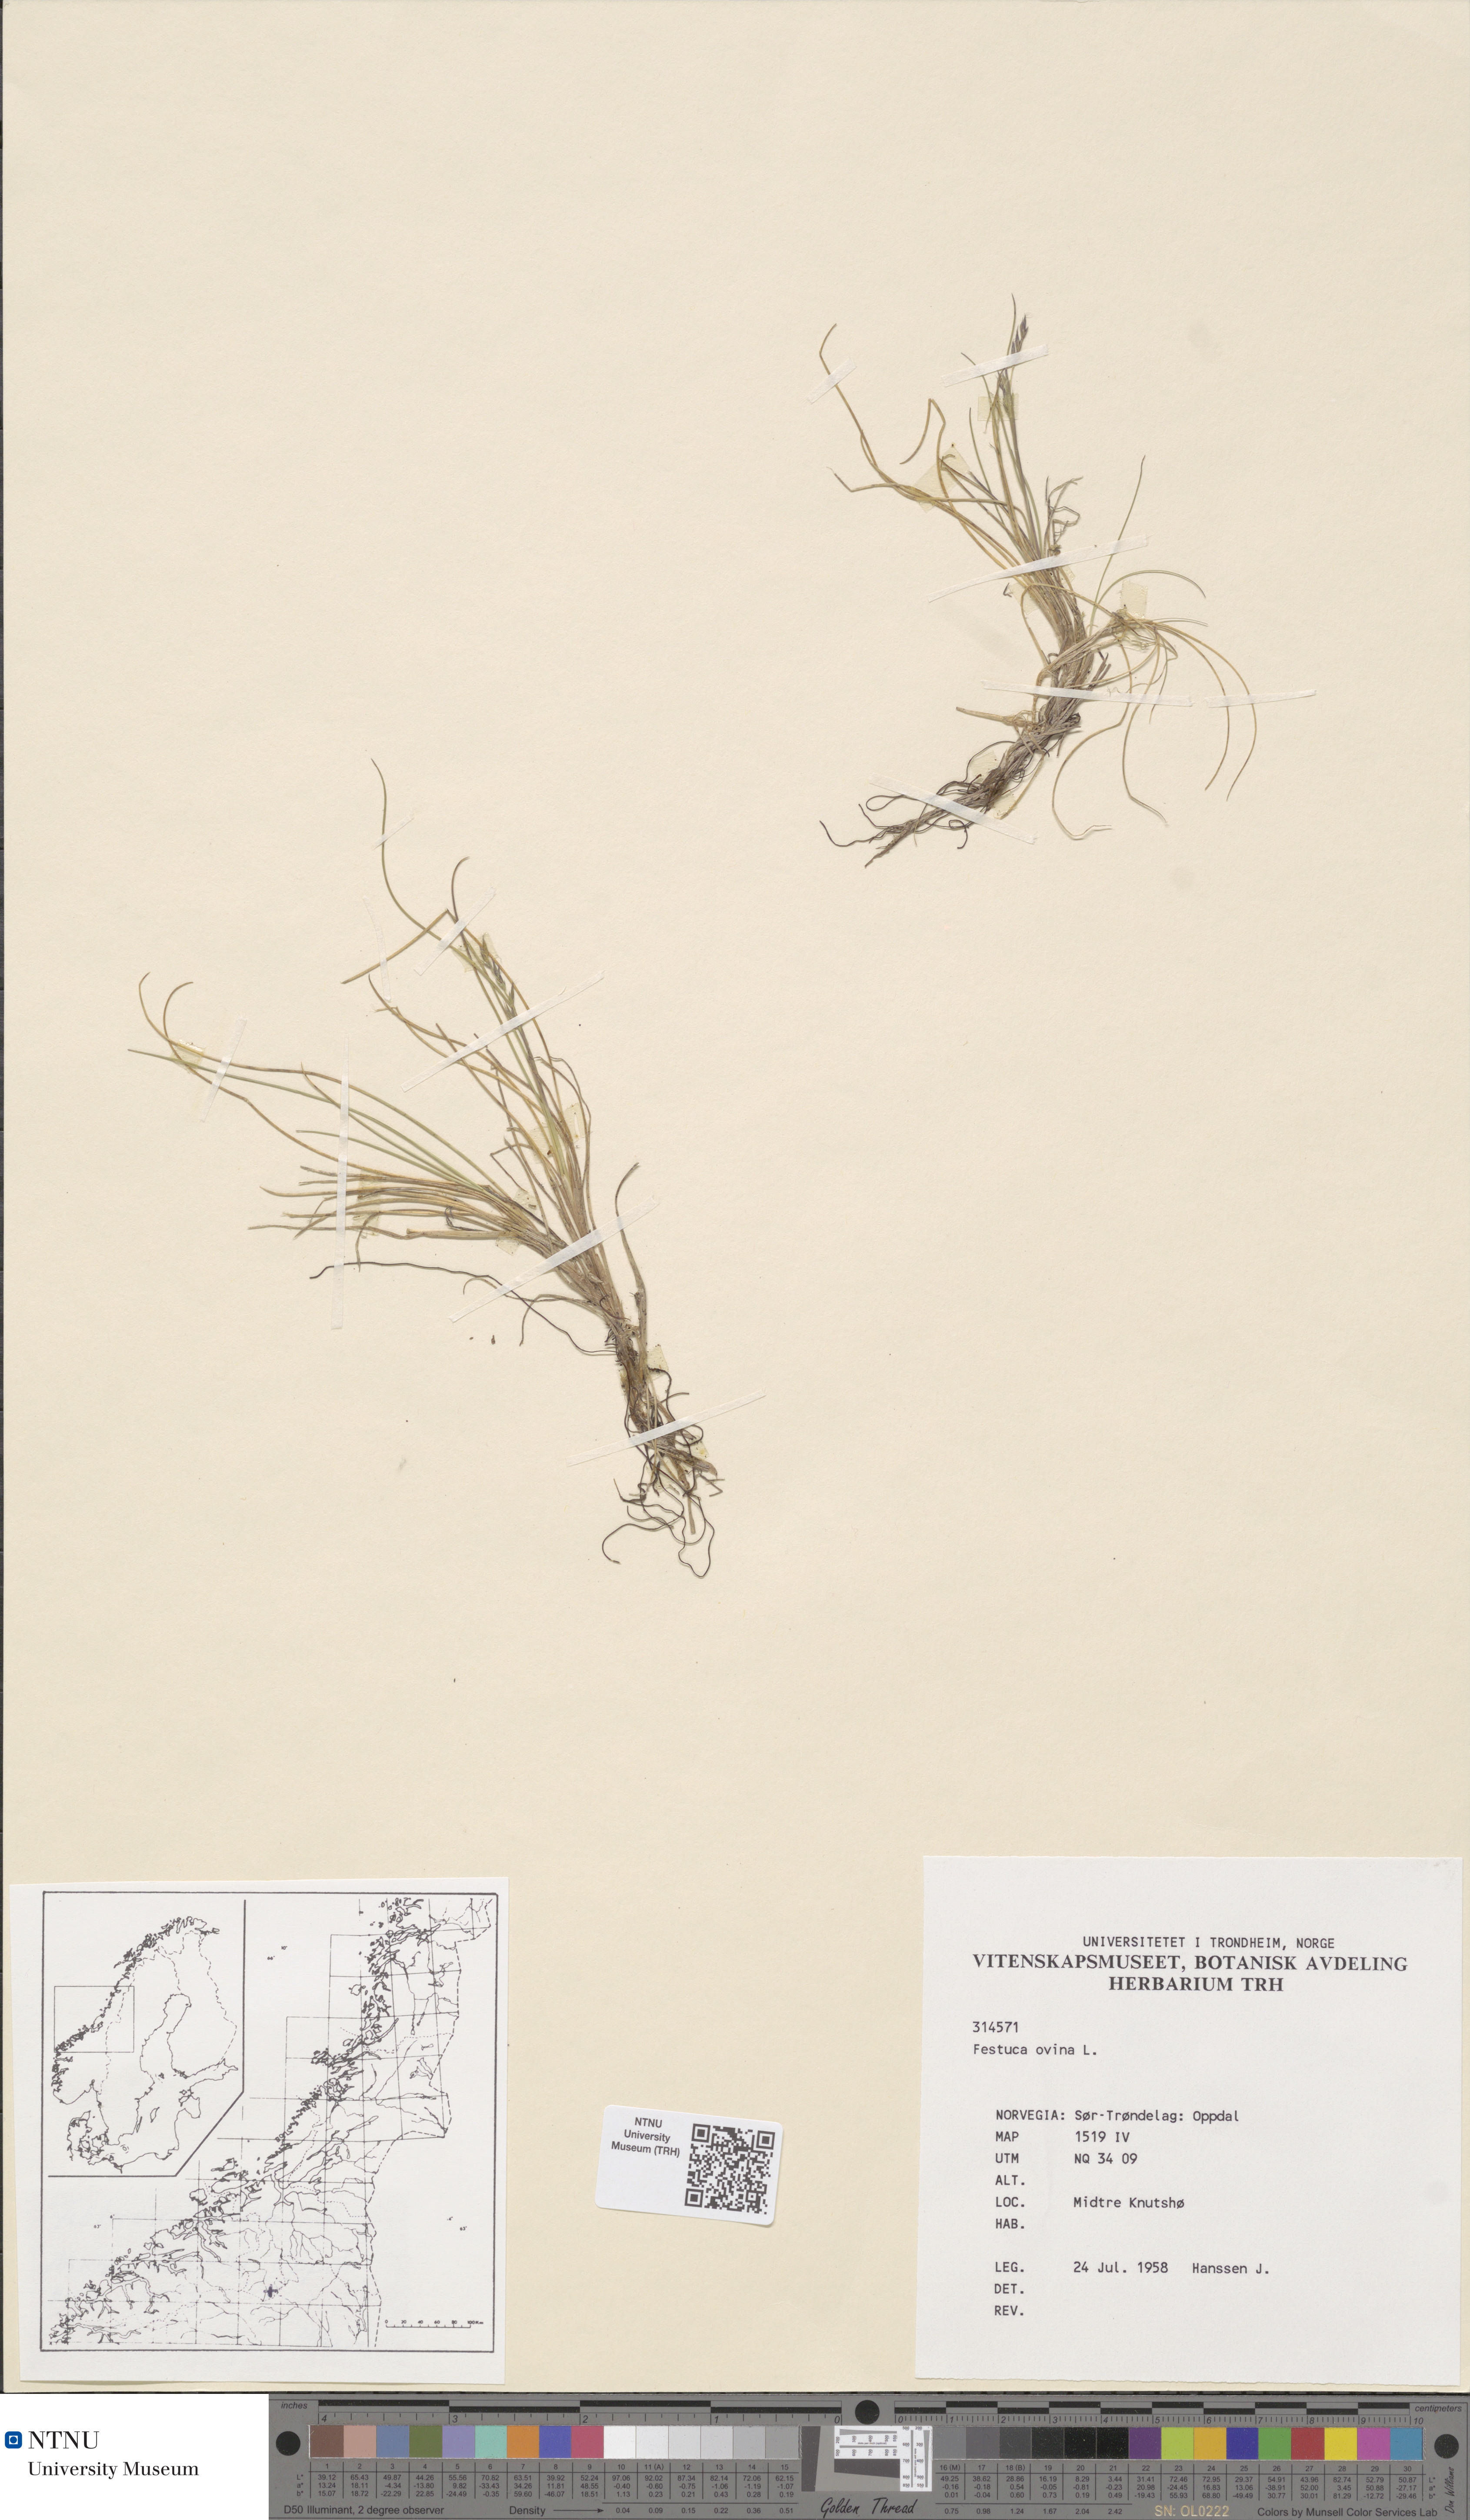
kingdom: Plantae
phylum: Tracheophyta
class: Liliopsida
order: Poales
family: Poaceae
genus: Festuca
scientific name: Festuca ovina
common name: Sheep fescue
